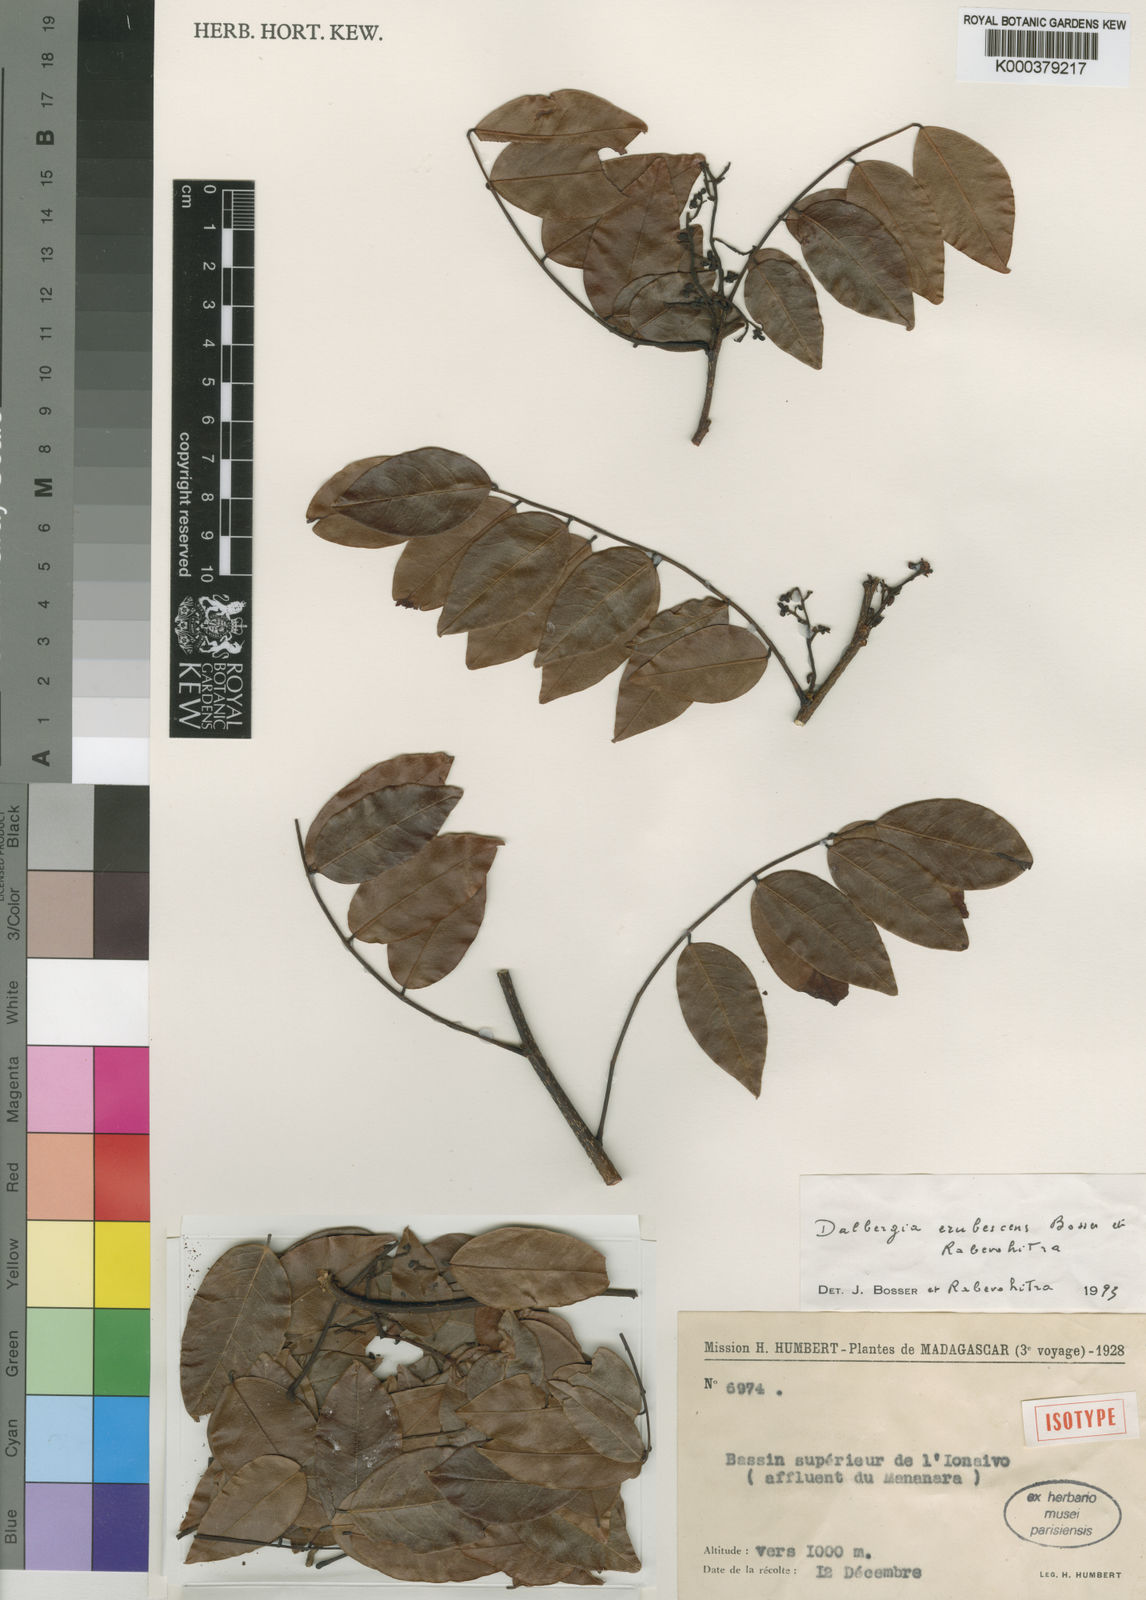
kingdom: Plantae
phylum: Tracheophyta
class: Magnoliopsida
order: Fabales
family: Fabaceae
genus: Dalbergia
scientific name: Dalbergia erubescens
